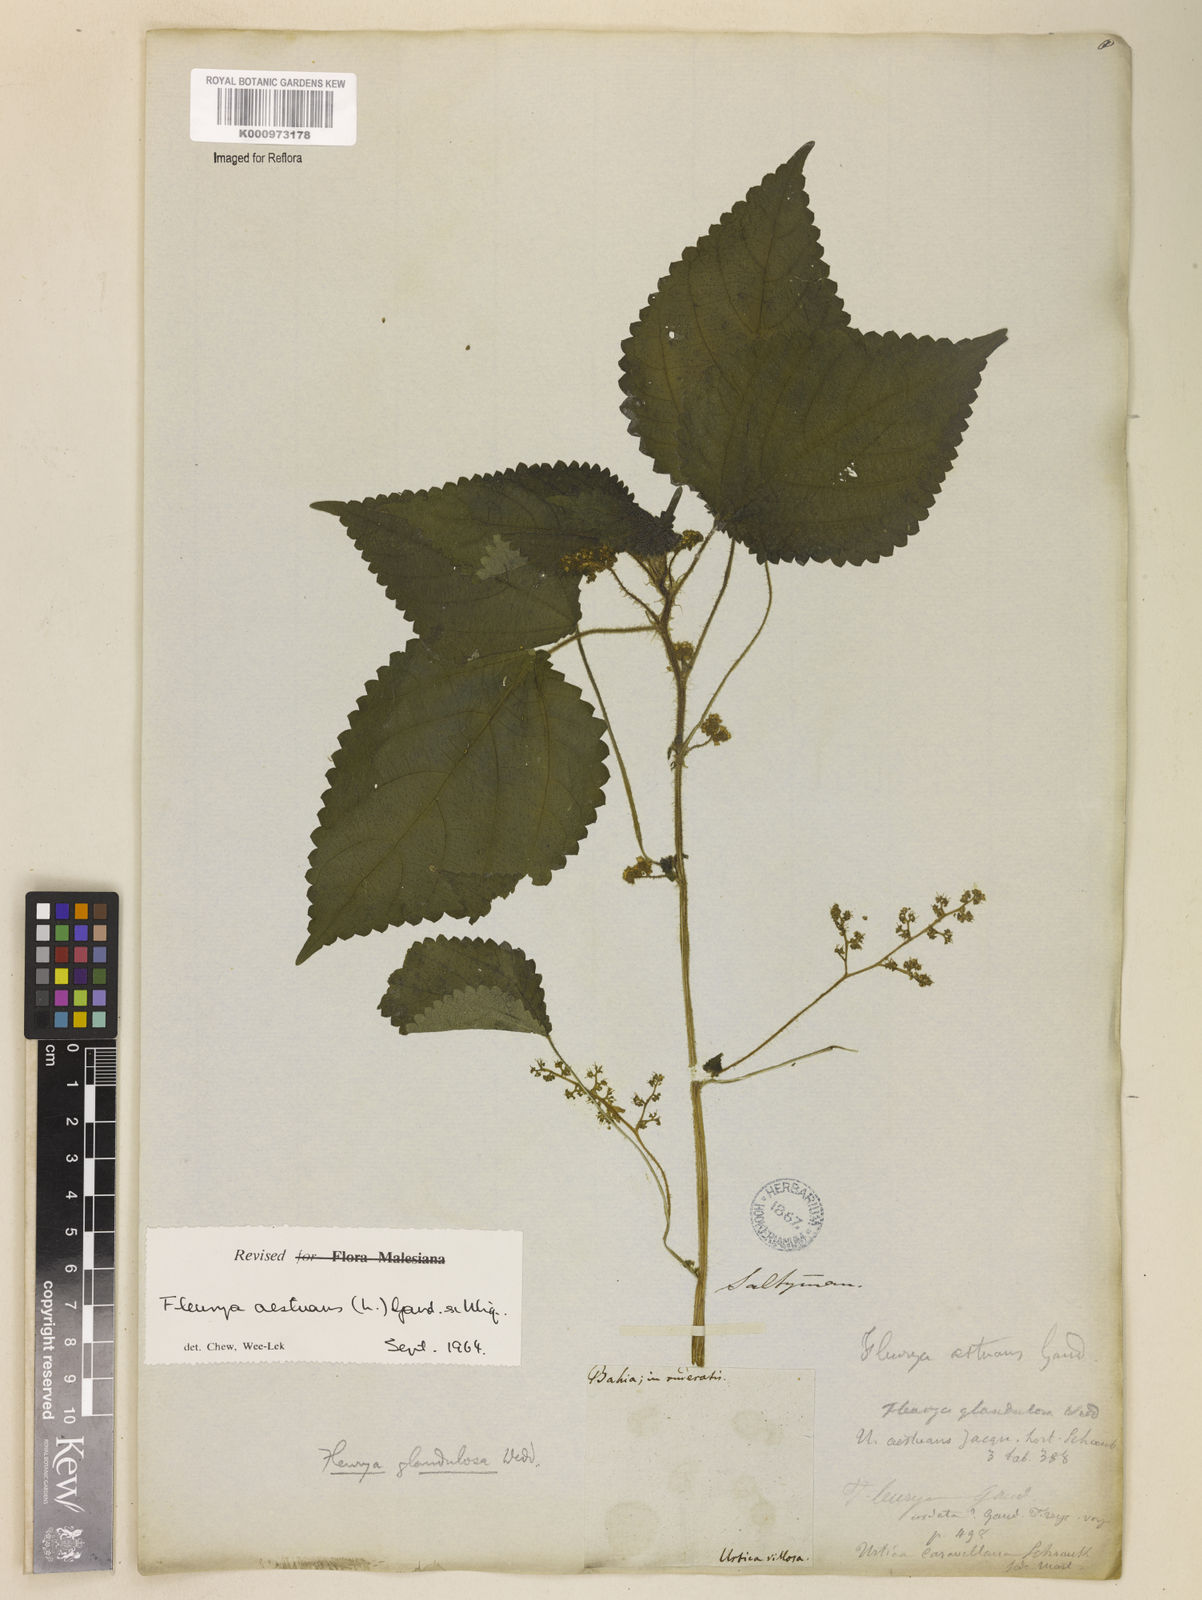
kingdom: Plantae
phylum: Tracheophyta
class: Magnoliopsida
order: Rosales
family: Urticaceae
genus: Laportea
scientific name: Laportea aestuans
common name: West indian woodnettle
